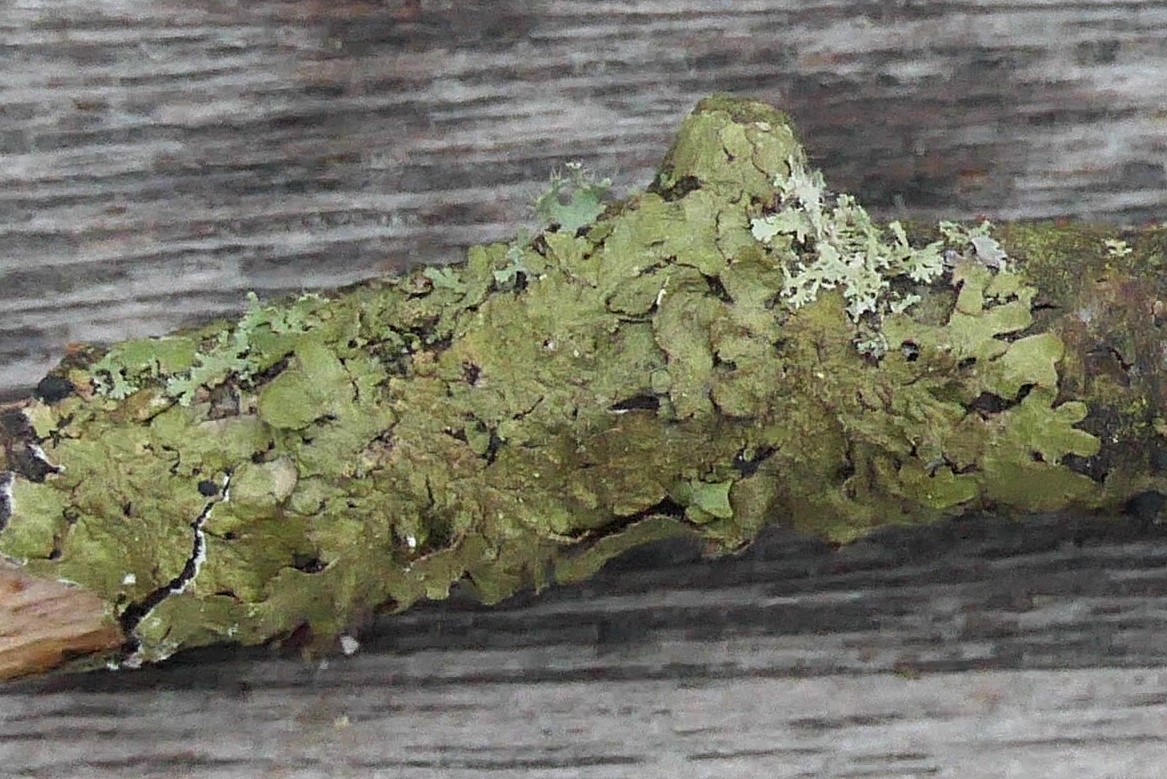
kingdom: Fungi
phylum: Ascomycota
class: Lecanoromycetes
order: Lecanorales
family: Parmeliaceae
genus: Melanelixia
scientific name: Melanelixia subaurifera
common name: guldpudret skållav
